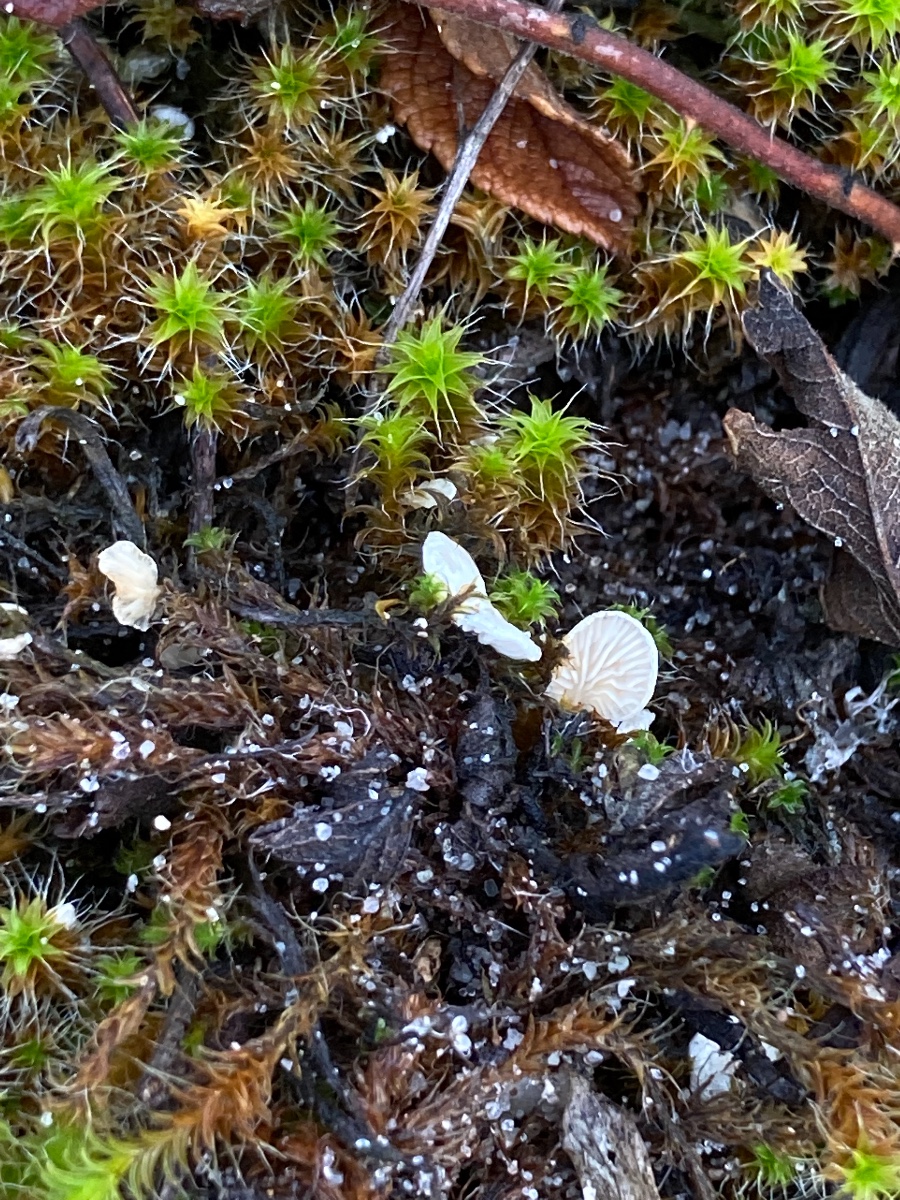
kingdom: Fungi
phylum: Basidiomycota
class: Agaricomycetes
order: Agaricales
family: Entolomataceae
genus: Clitopilus
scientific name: Clitopilus
